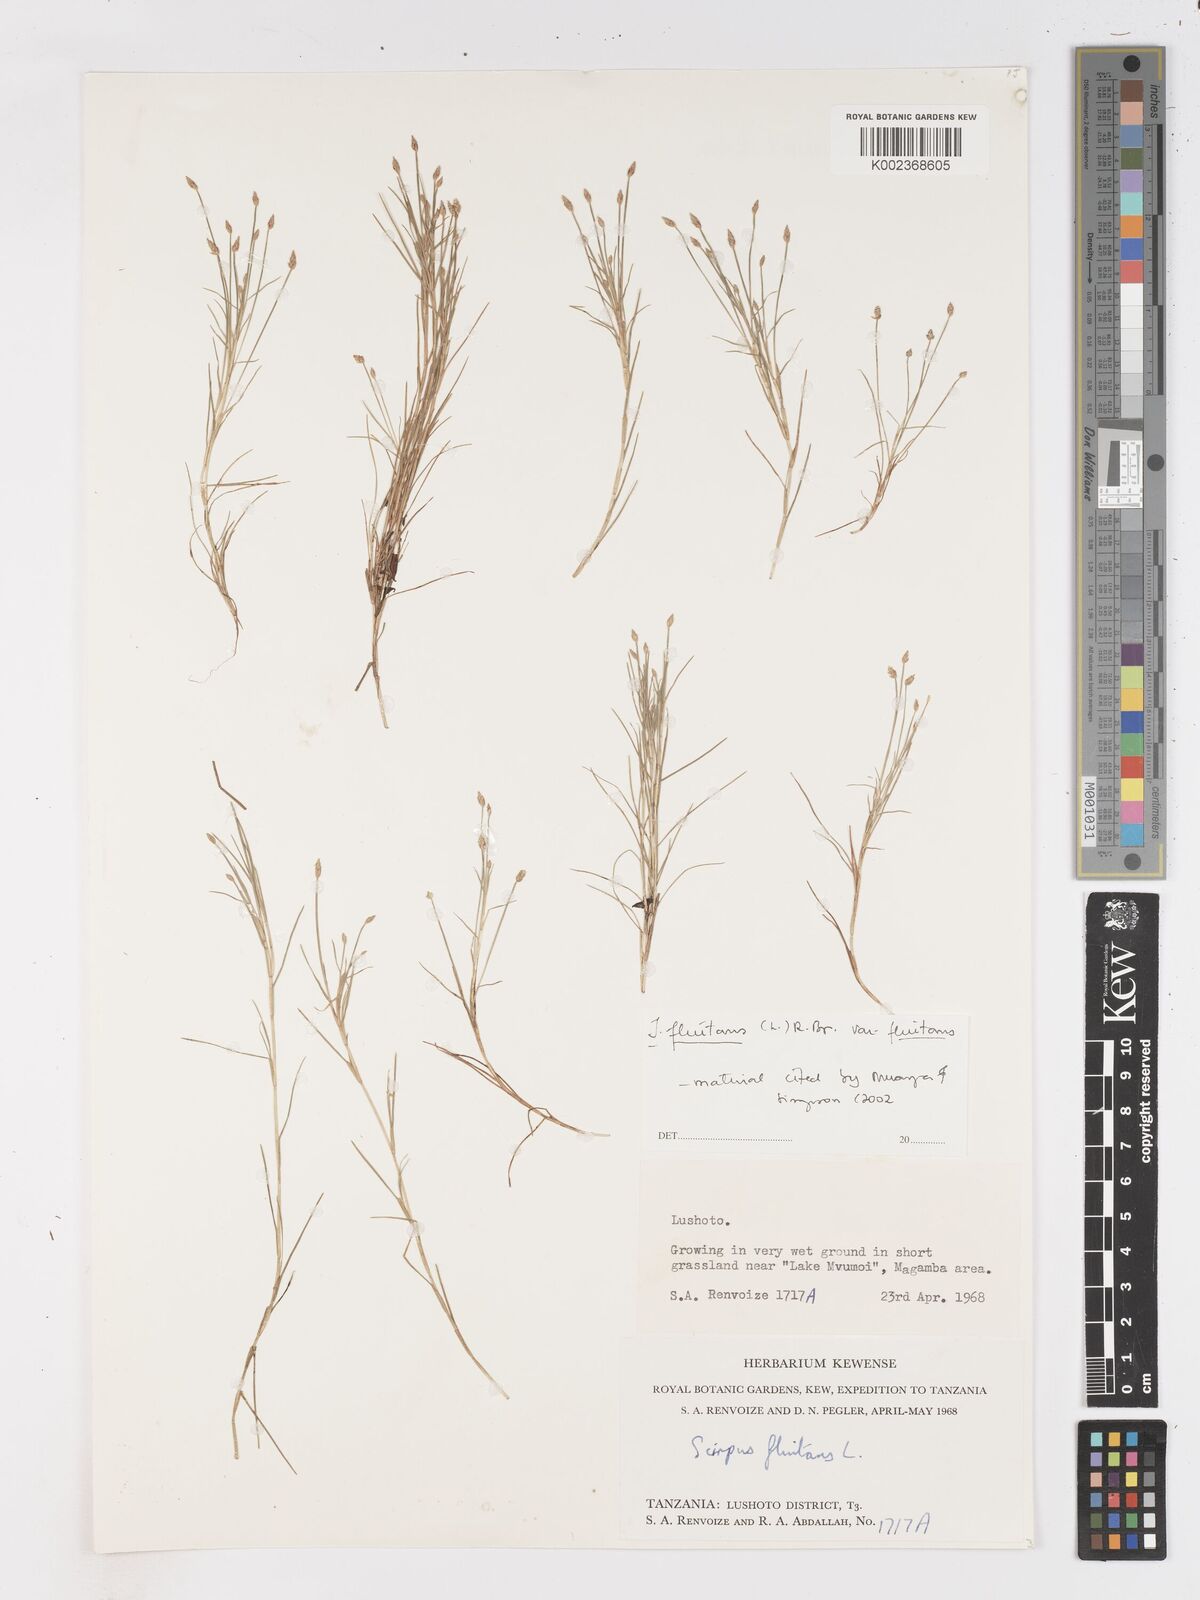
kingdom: Plantae
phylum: Tracheophyta
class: Liliopsida
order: Poales
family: Cyperaceae
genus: Isolepis
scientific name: Isolepis fluitans
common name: Floating club-rush
